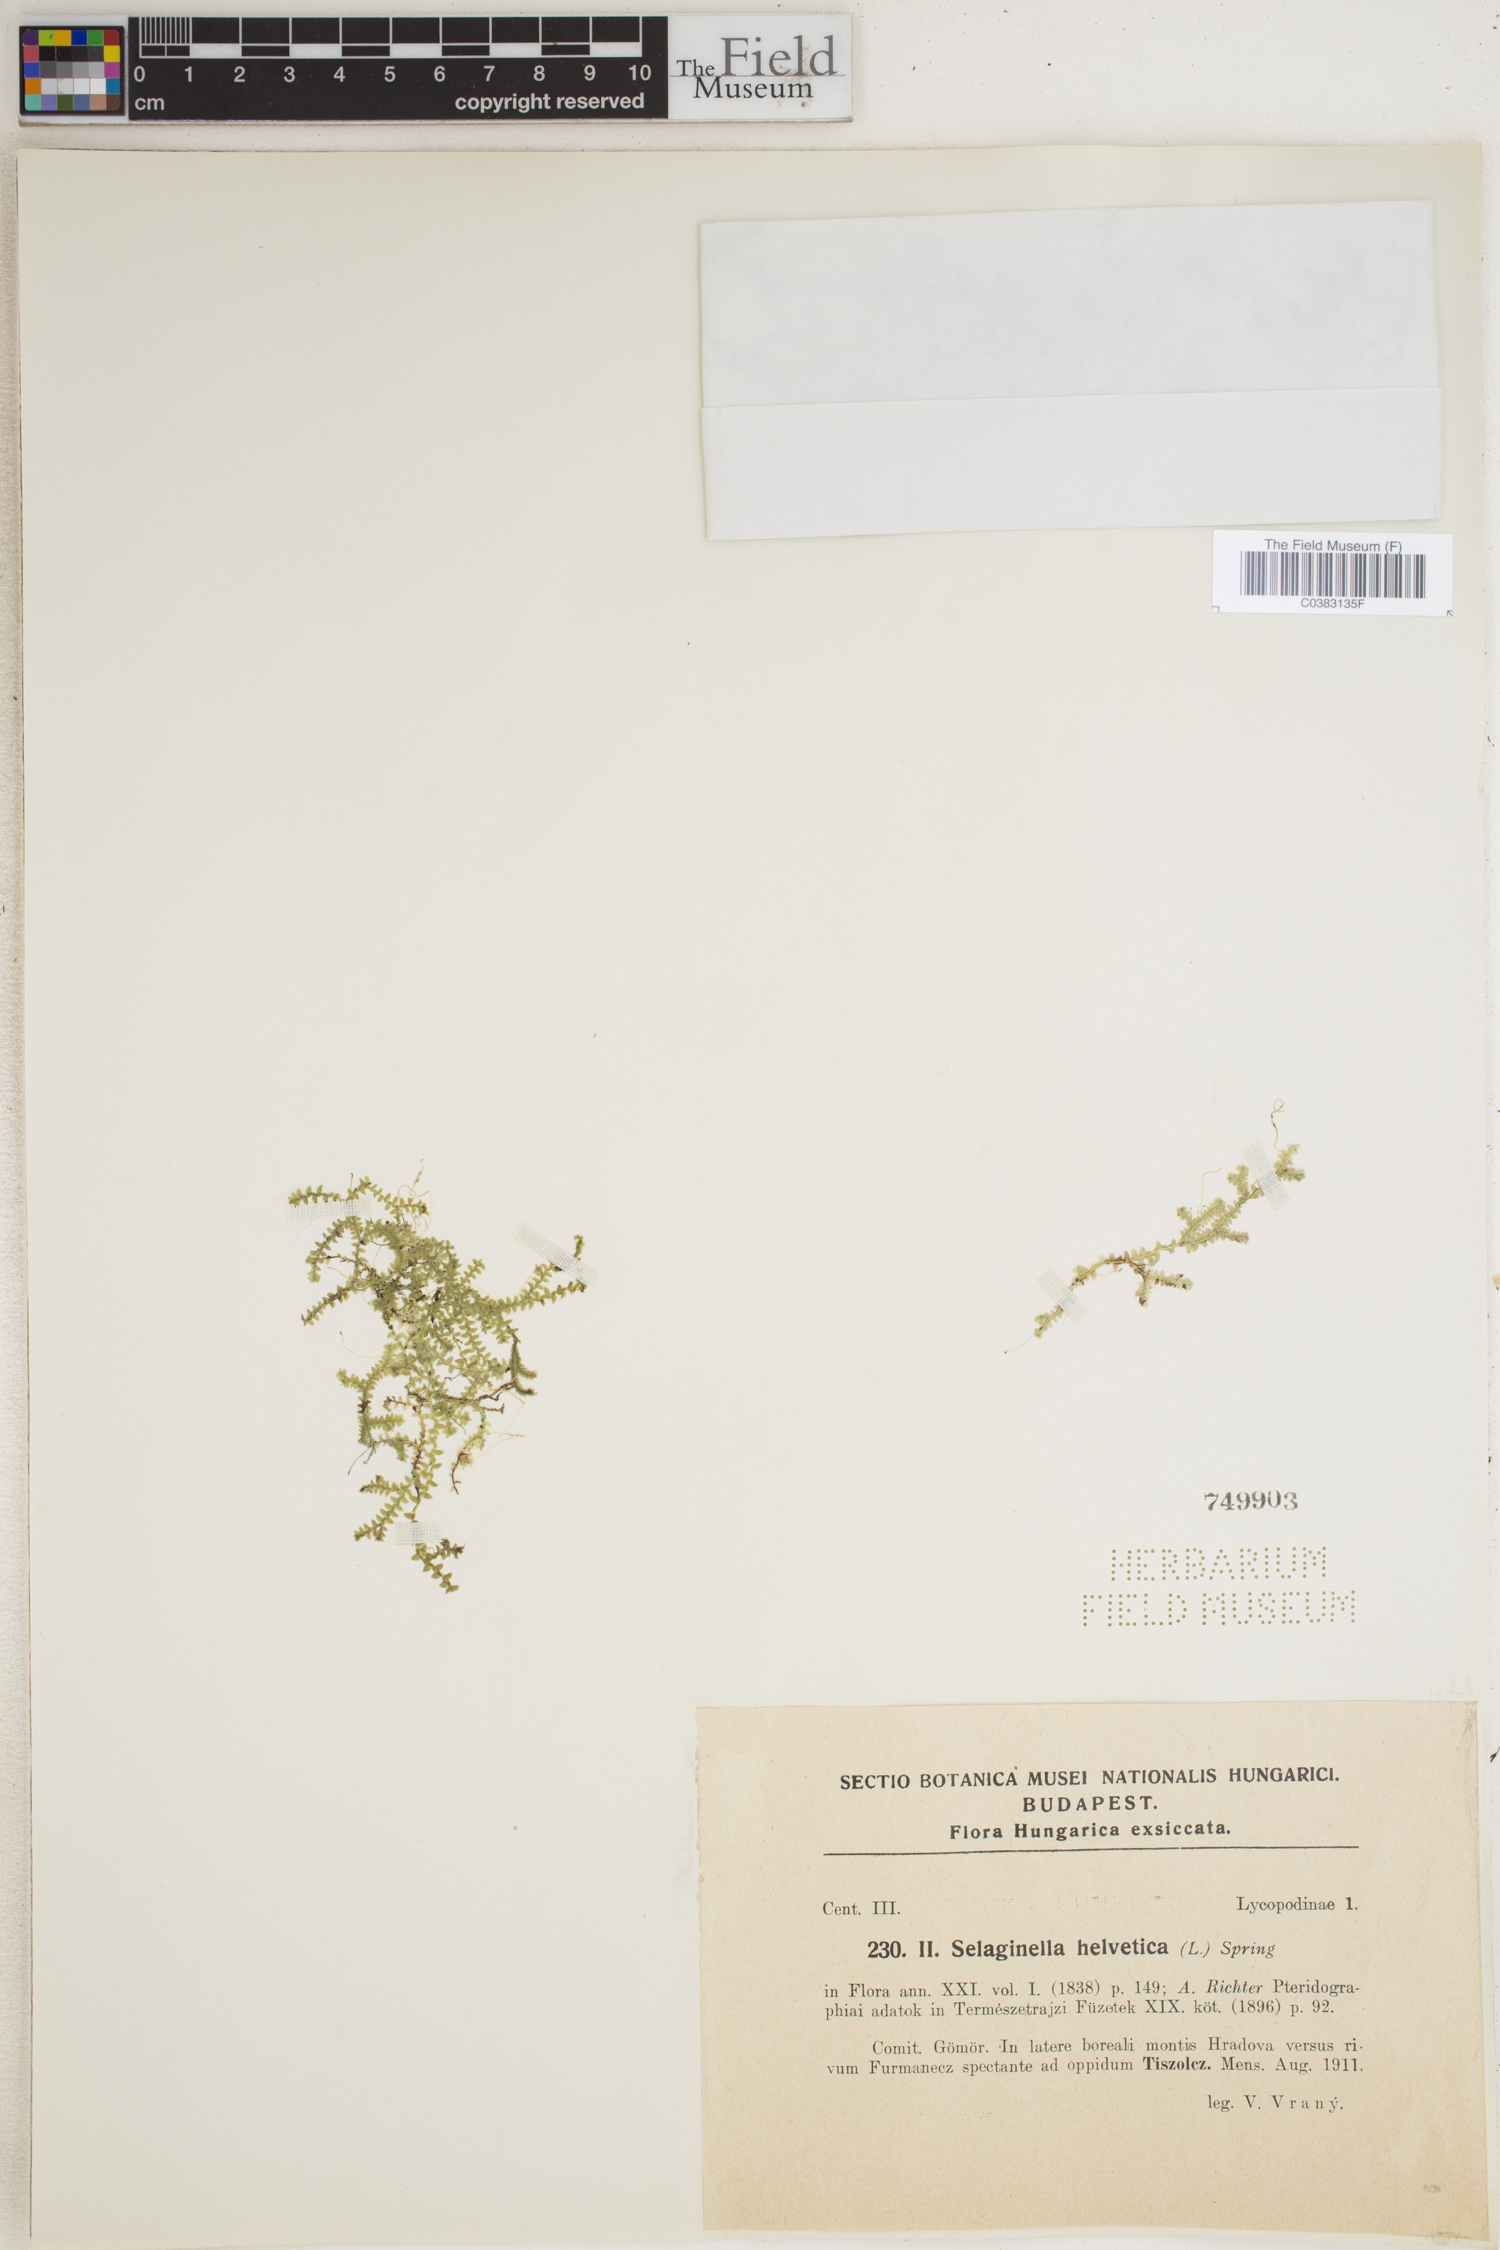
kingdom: Plantae
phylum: Tracheophyta
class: Lycopodiopsida
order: Selaginellales
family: Selaginellaceae
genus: Selaginella
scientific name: Selaginella helvetica
